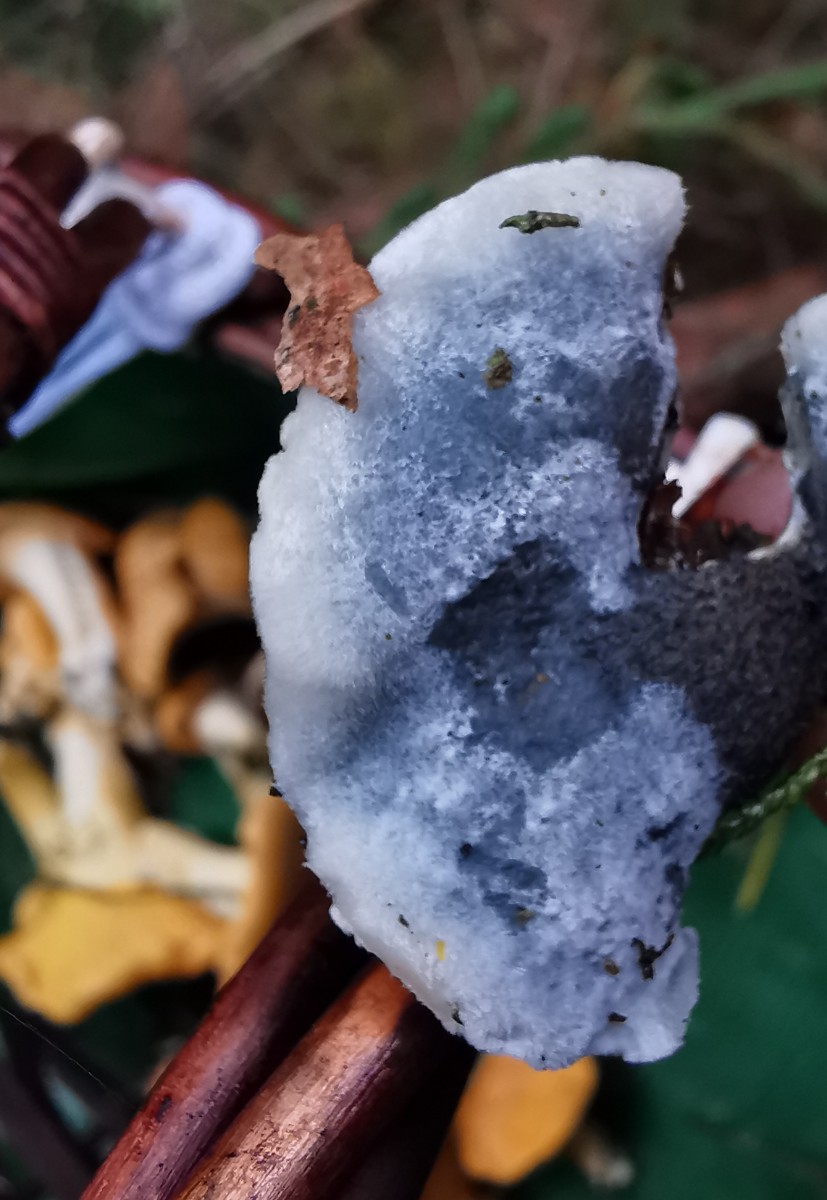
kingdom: Fungi
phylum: Basidiomycota
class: Agaricomycetes
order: Polyporales
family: Polyporaceae
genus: Cyanosporus
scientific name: Cyanosporus caesius
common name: blålig kødporesvamp
